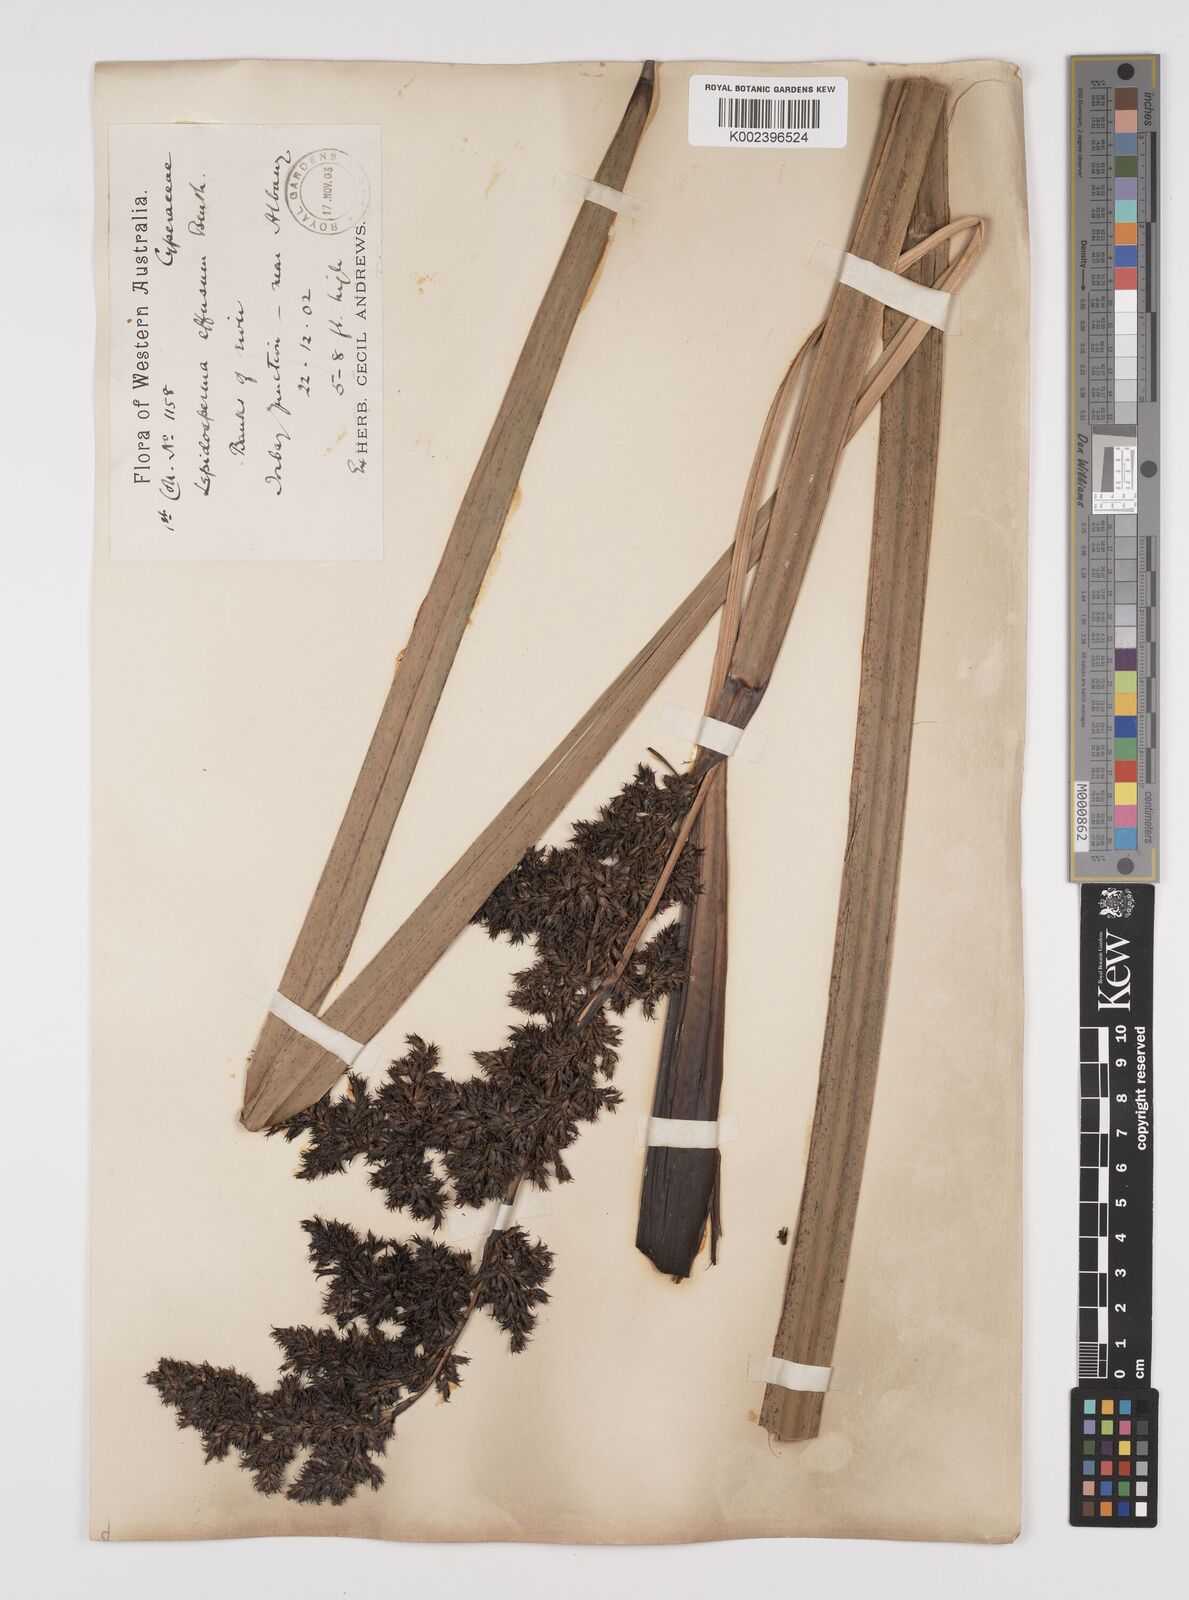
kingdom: Plantae
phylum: Tracheophyta
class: Liliopsida
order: Poales
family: Cyperaceae
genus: Lepidosperma
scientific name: Lepidosperma effusum
